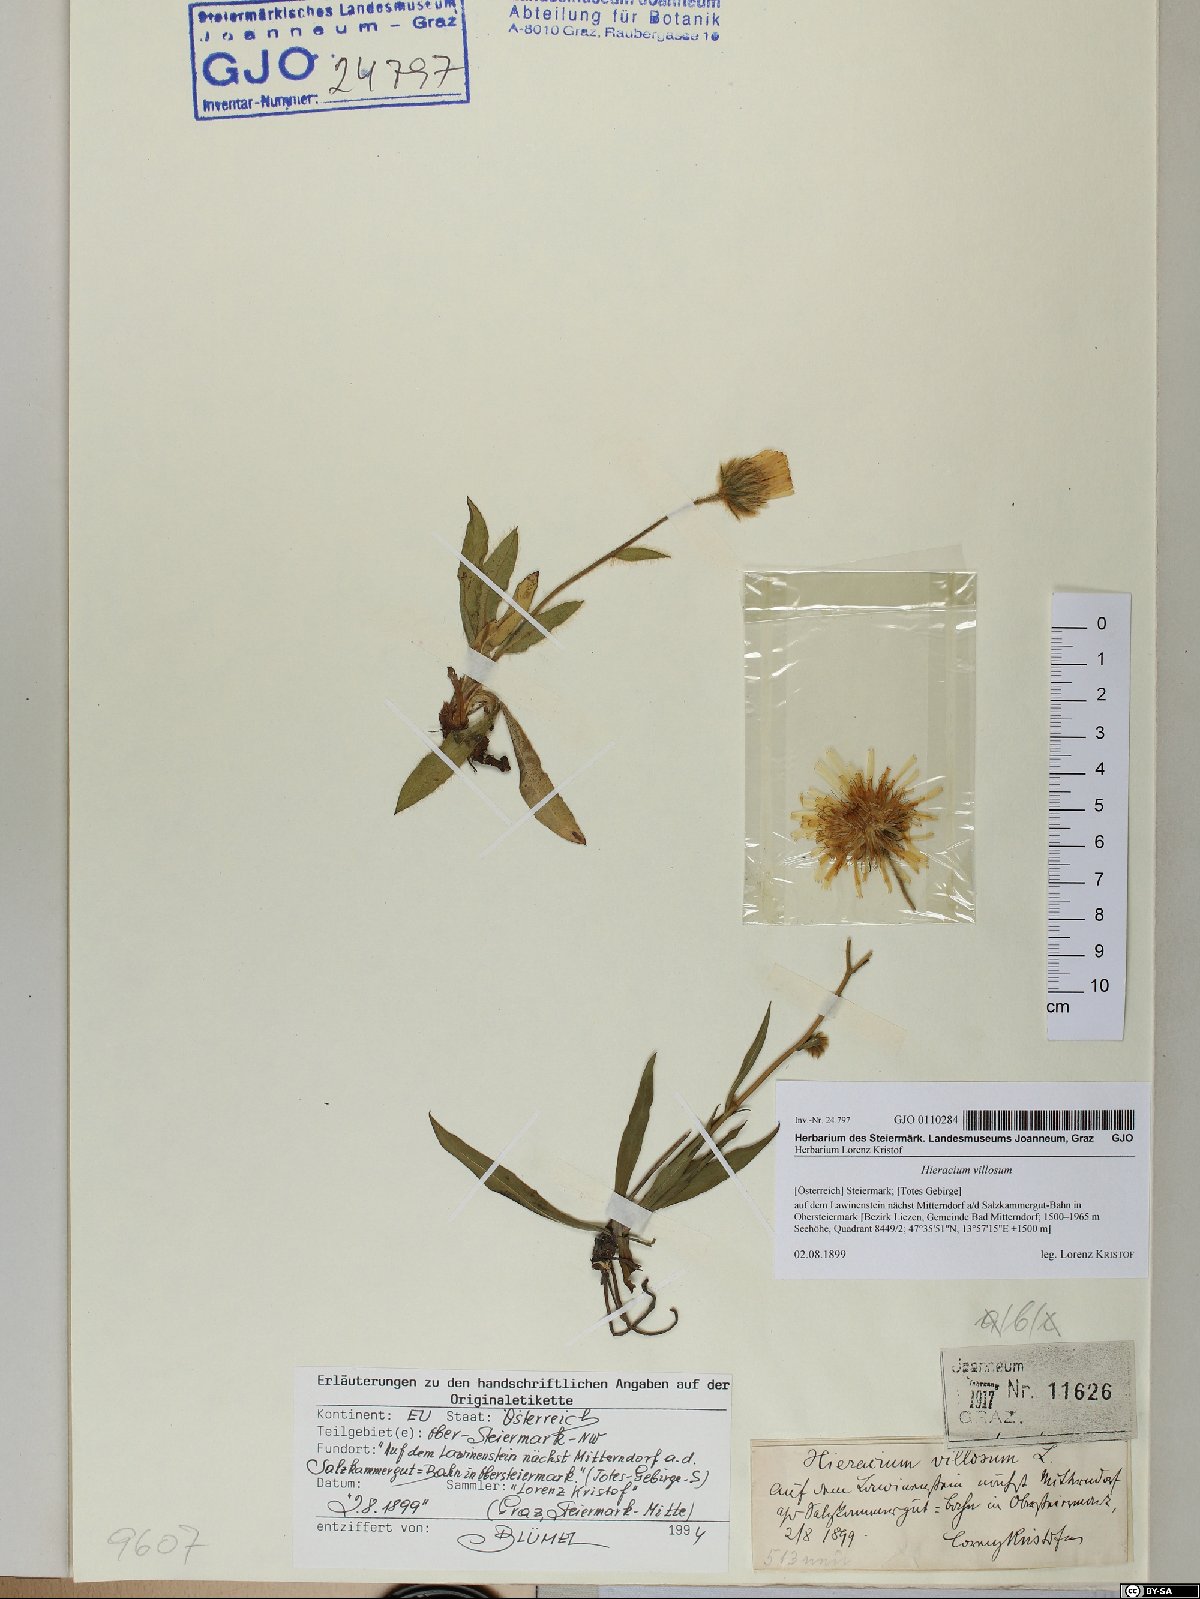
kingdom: Plantae
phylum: Tracheophyta
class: Magnoliopsida
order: Asterales
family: Asteraceae
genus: Hieracium
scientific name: Hieracium villosum
